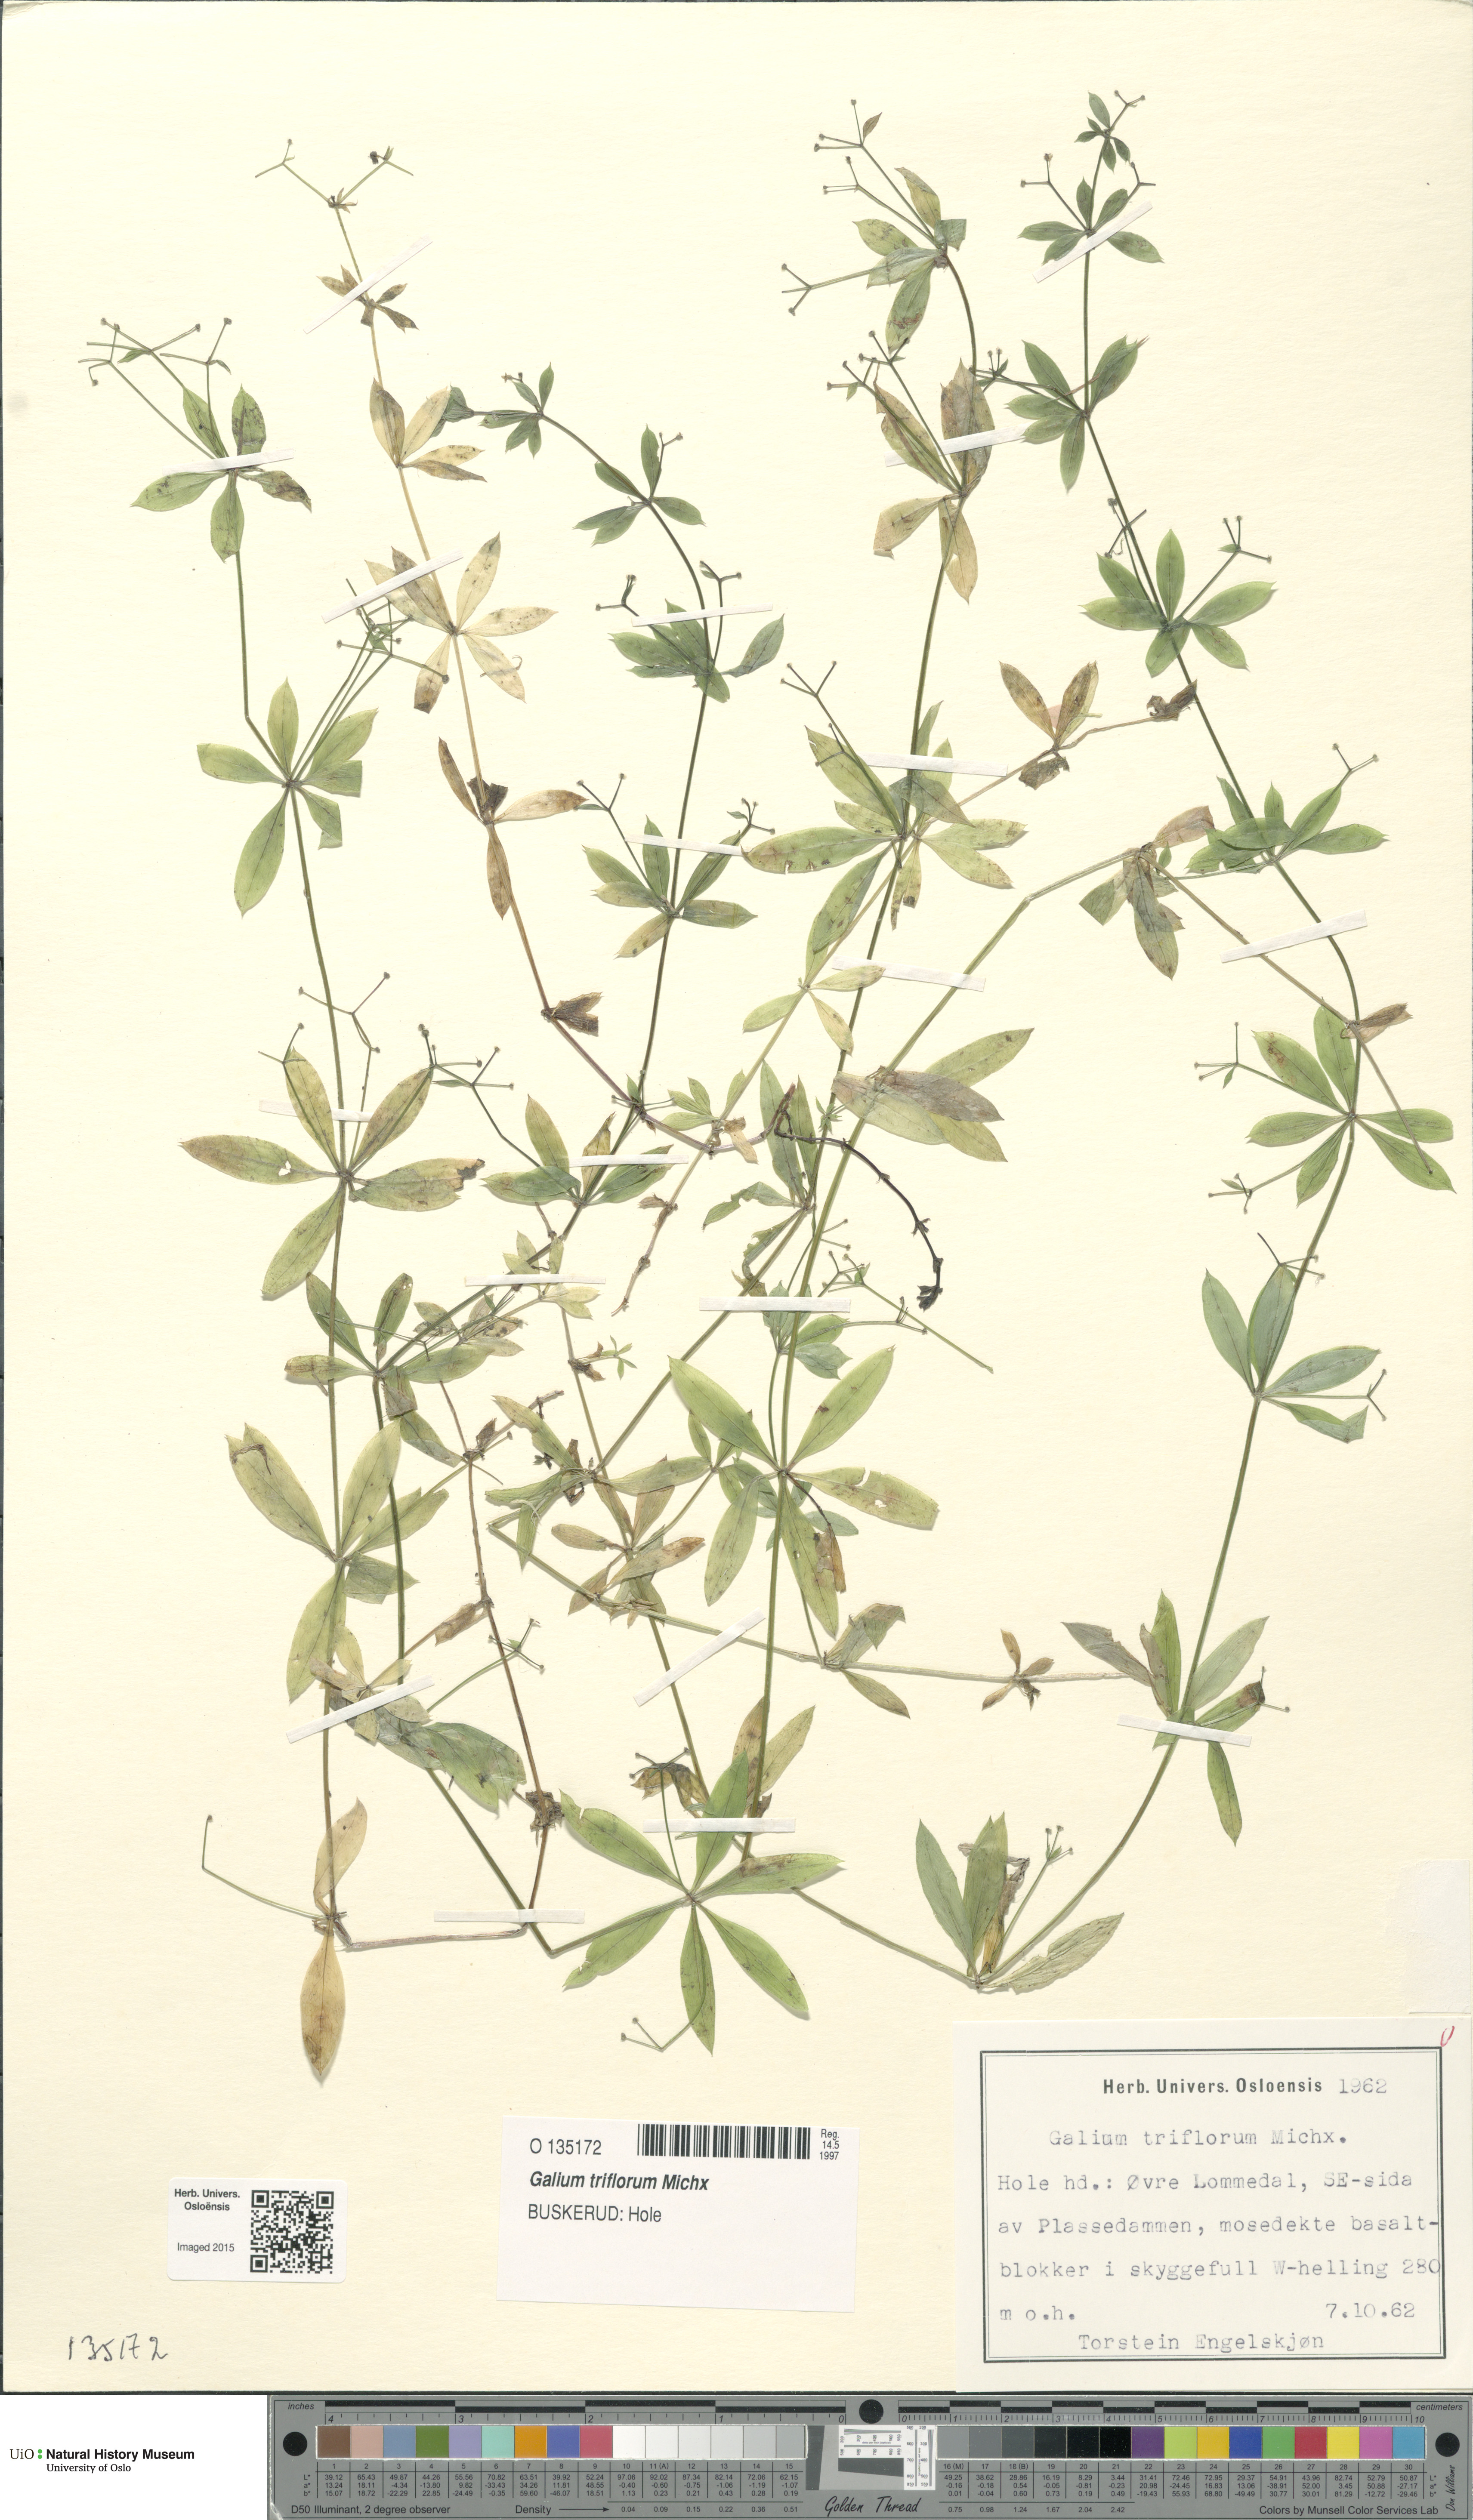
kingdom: Plantae
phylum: Tracheophyta
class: Magnoliopsida
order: Gentianales
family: Rubiaceae
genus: Galium
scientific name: Galium triflorum
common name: Fragrant bedstraw
